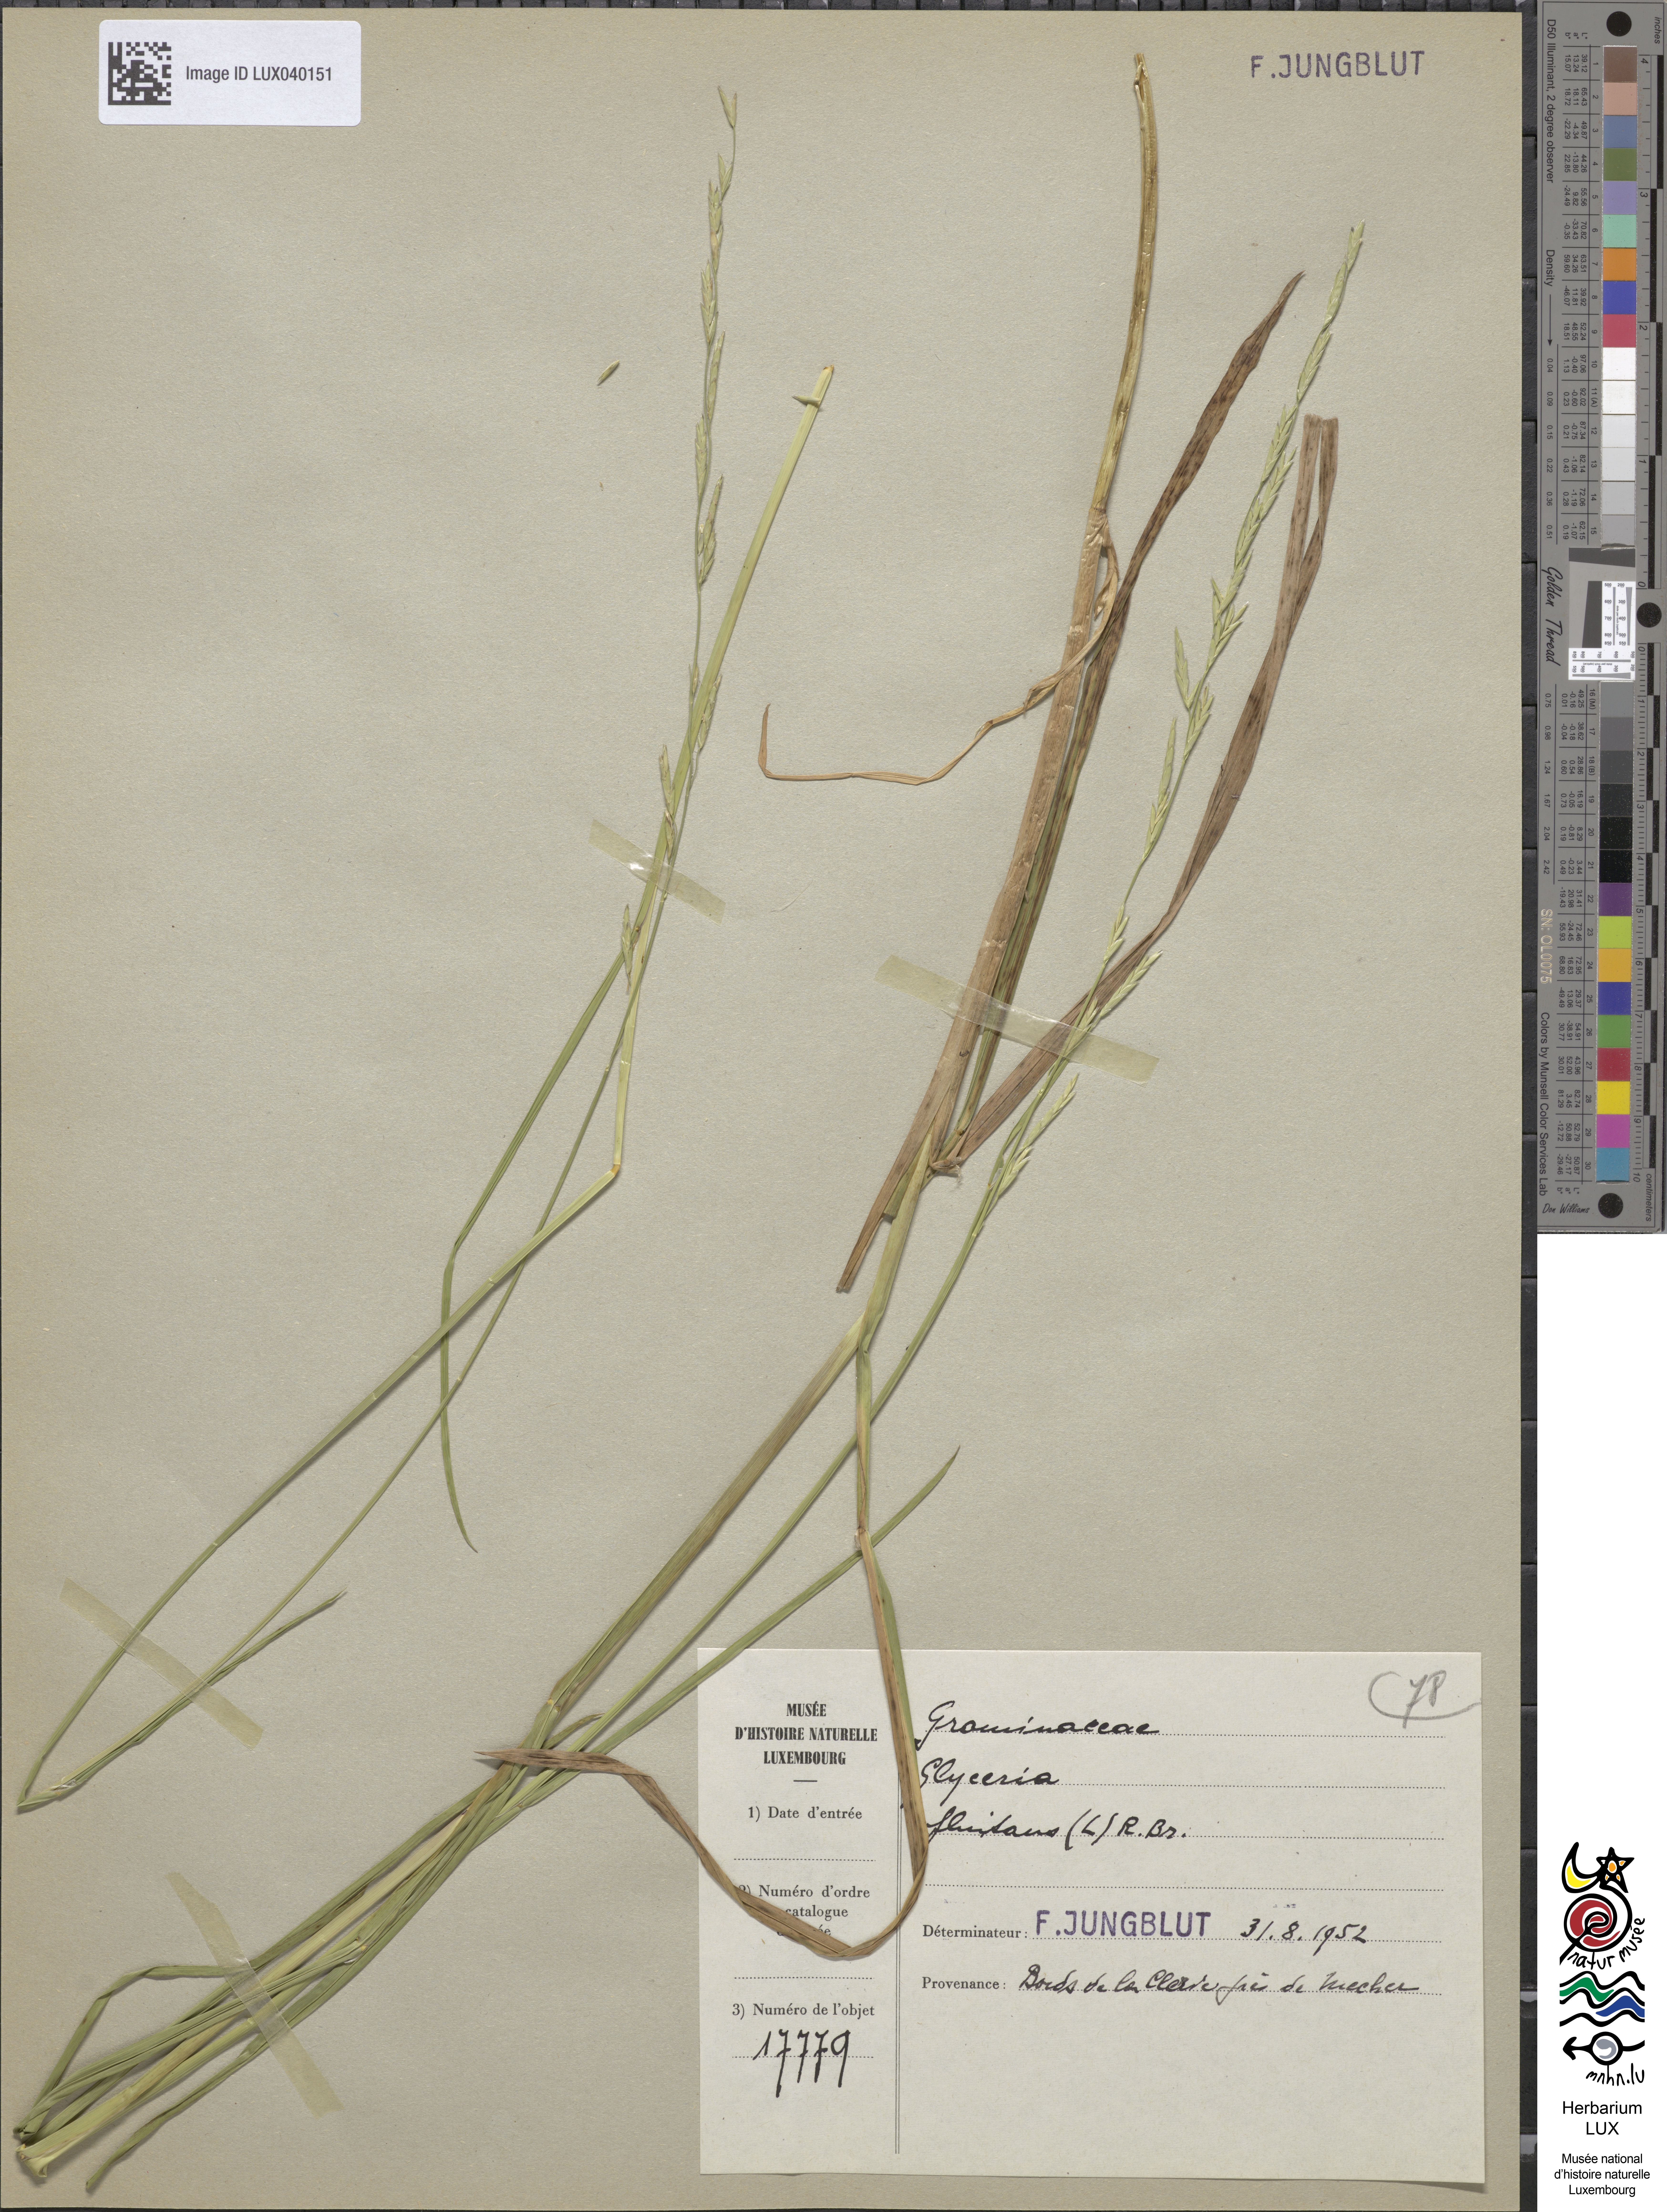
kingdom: Plantae
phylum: Tracheophyta
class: Liliopsida
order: Poales
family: Poaceae
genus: Glyceria
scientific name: Glyceria fluitans
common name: Floating sweet-grass
